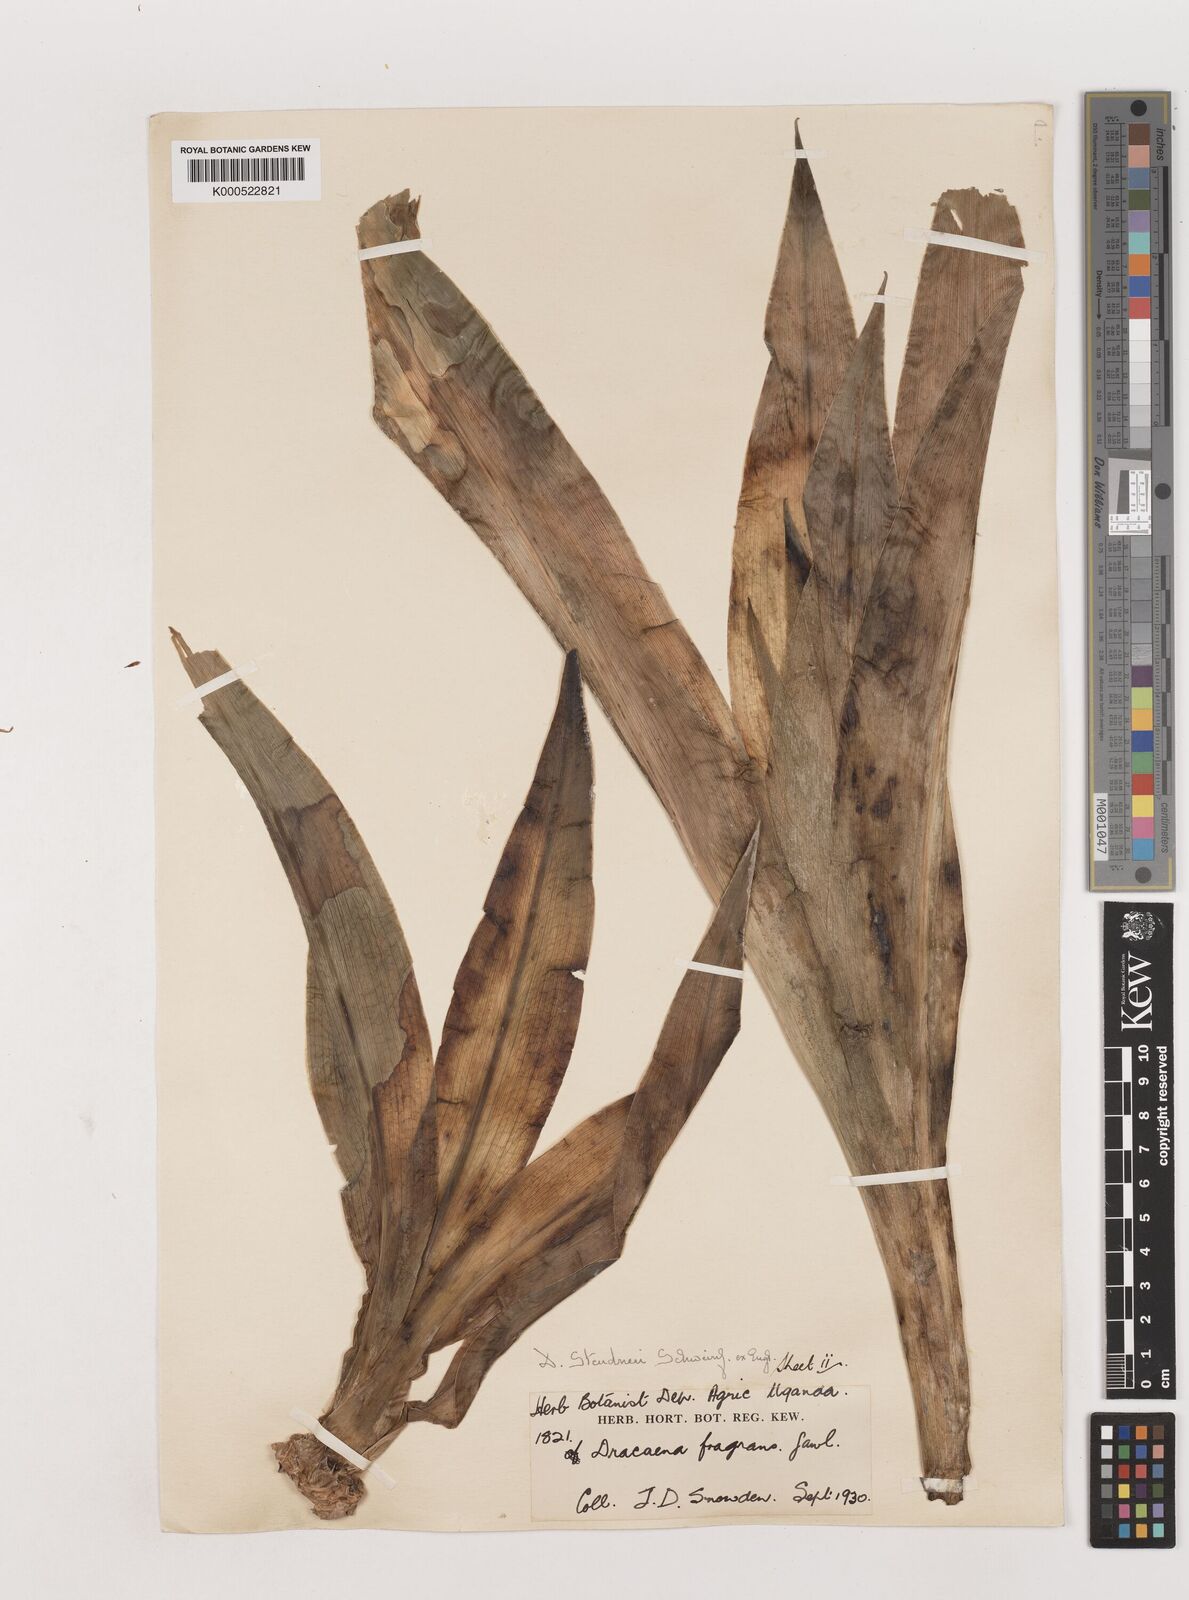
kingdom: Plantae
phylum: Tracheophyta
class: Liliopsida
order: Asparagales
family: Asparagaceae
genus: Dracaena
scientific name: Dracaena steudneri
